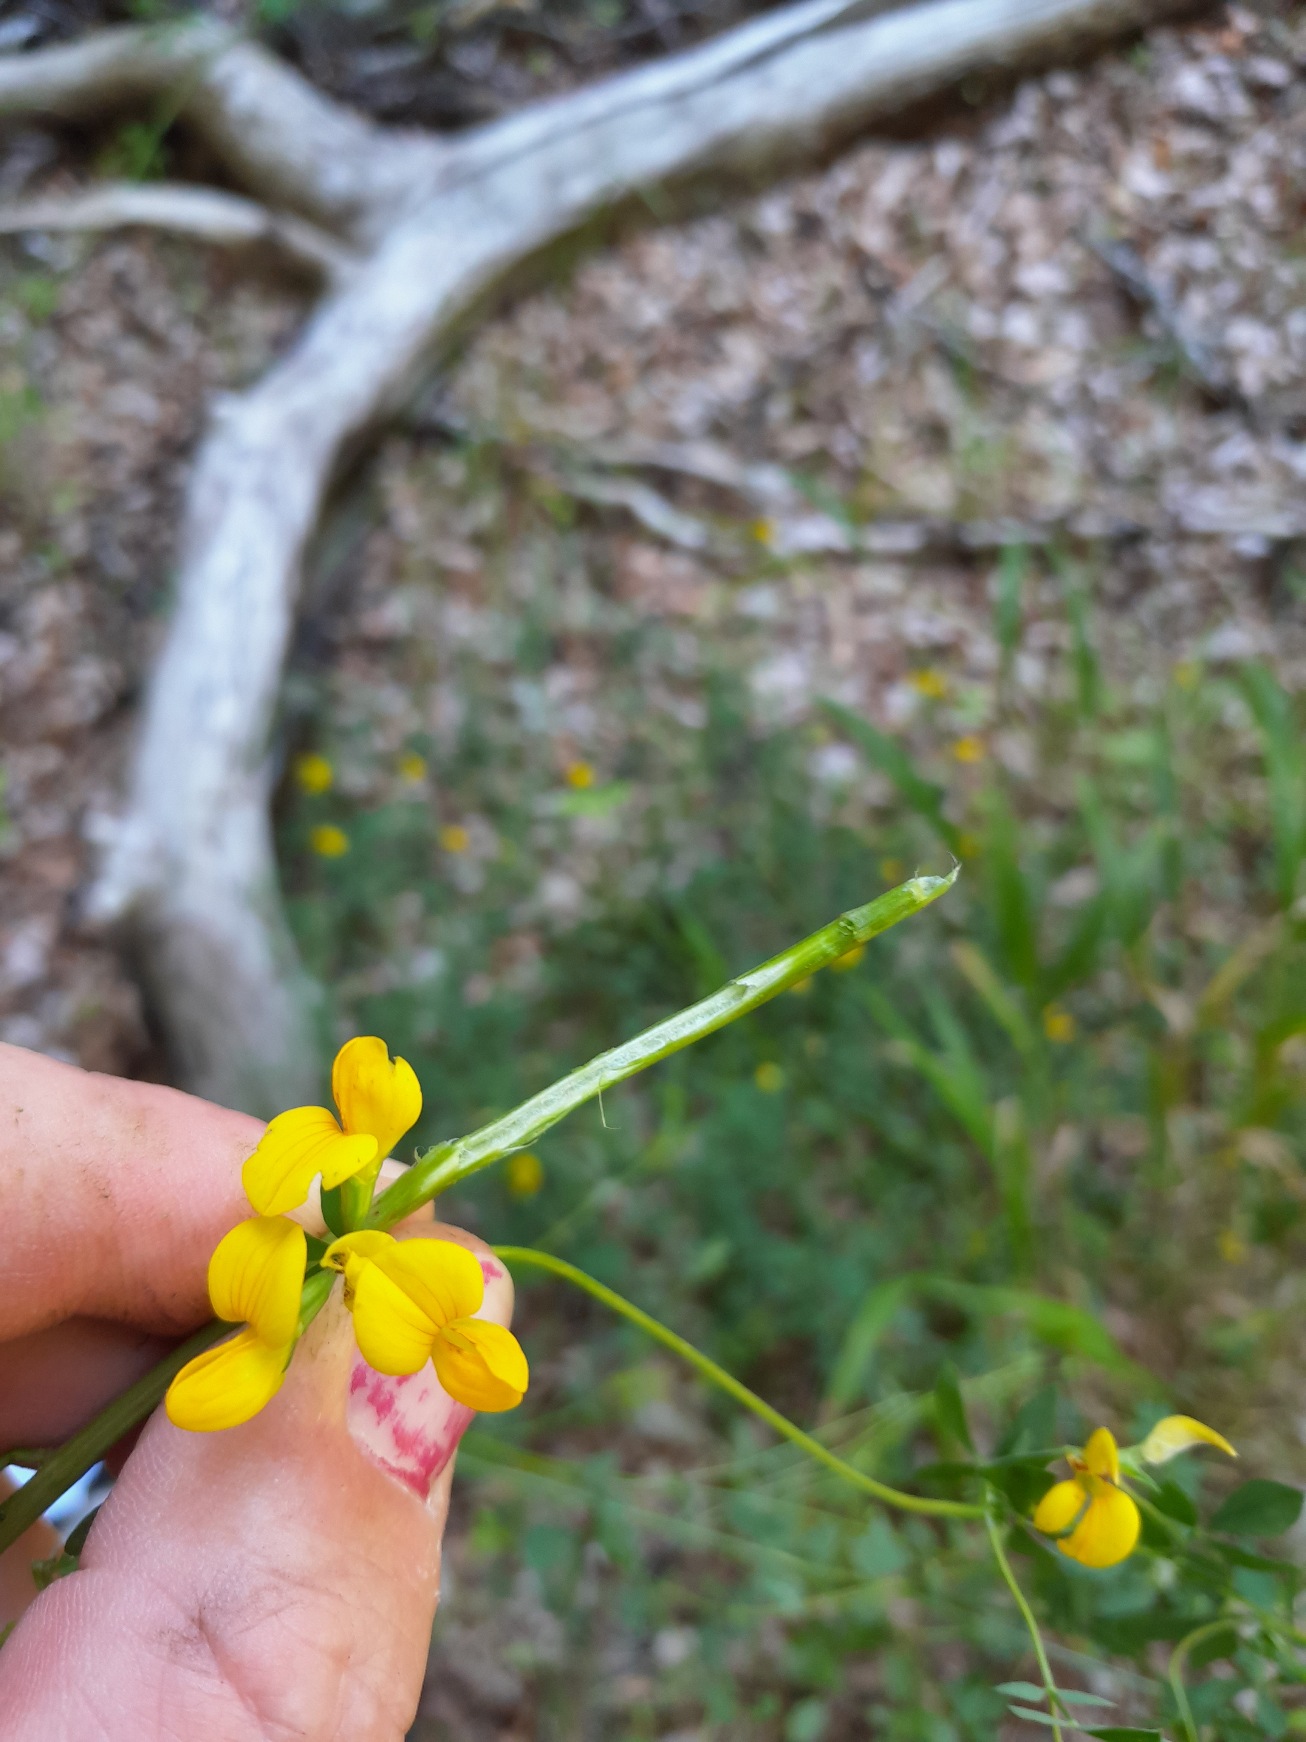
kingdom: Plantae
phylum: Tracheophyta
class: Magnoliopsida
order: Fabales
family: Fabaceae
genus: Lotus
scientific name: Lotus corniculatus
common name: Foder-kællingetand
